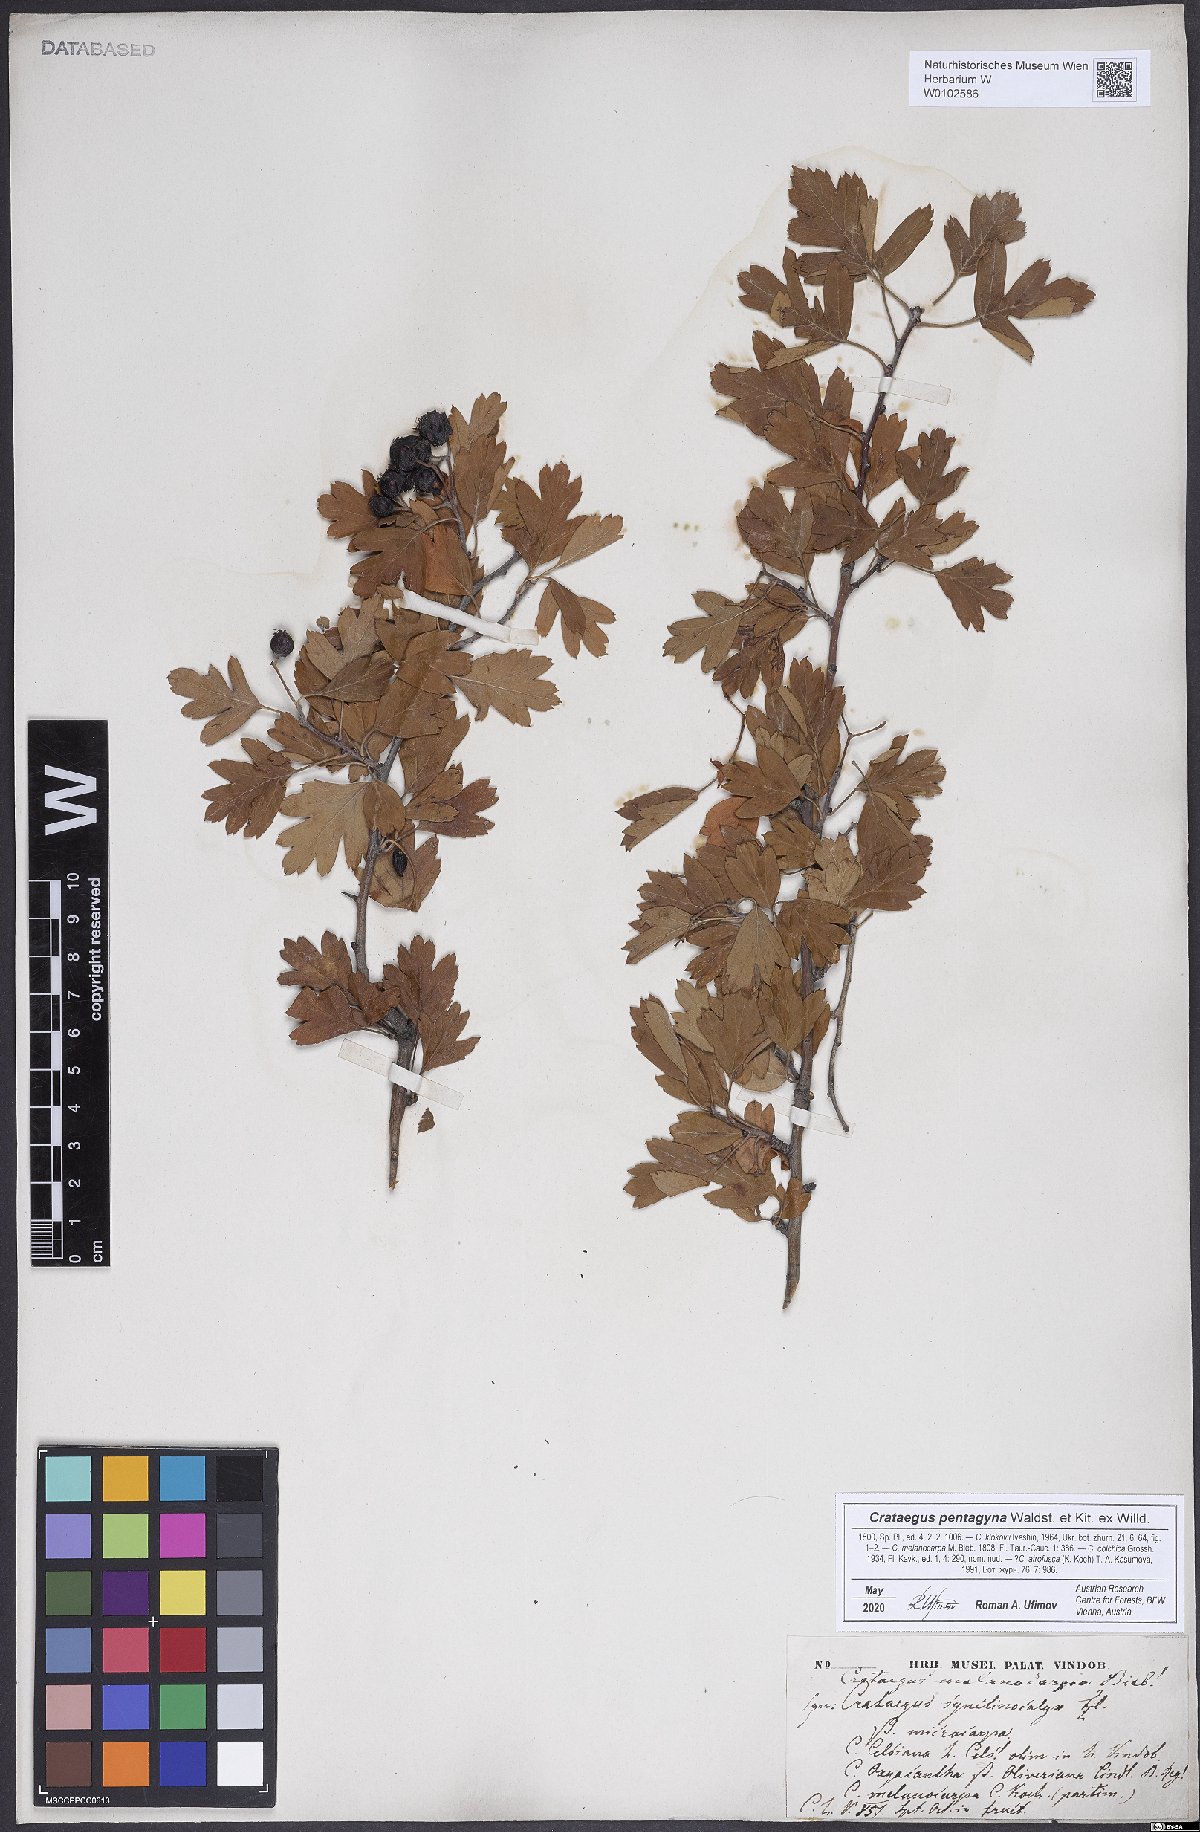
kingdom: Plantae
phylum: Tracheophyta
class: Magnoliopsida
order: Rosales
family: Rosaceae
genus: Crataegus
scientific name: Crataegus pentagyna
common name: Small-flowered black hawthorn
